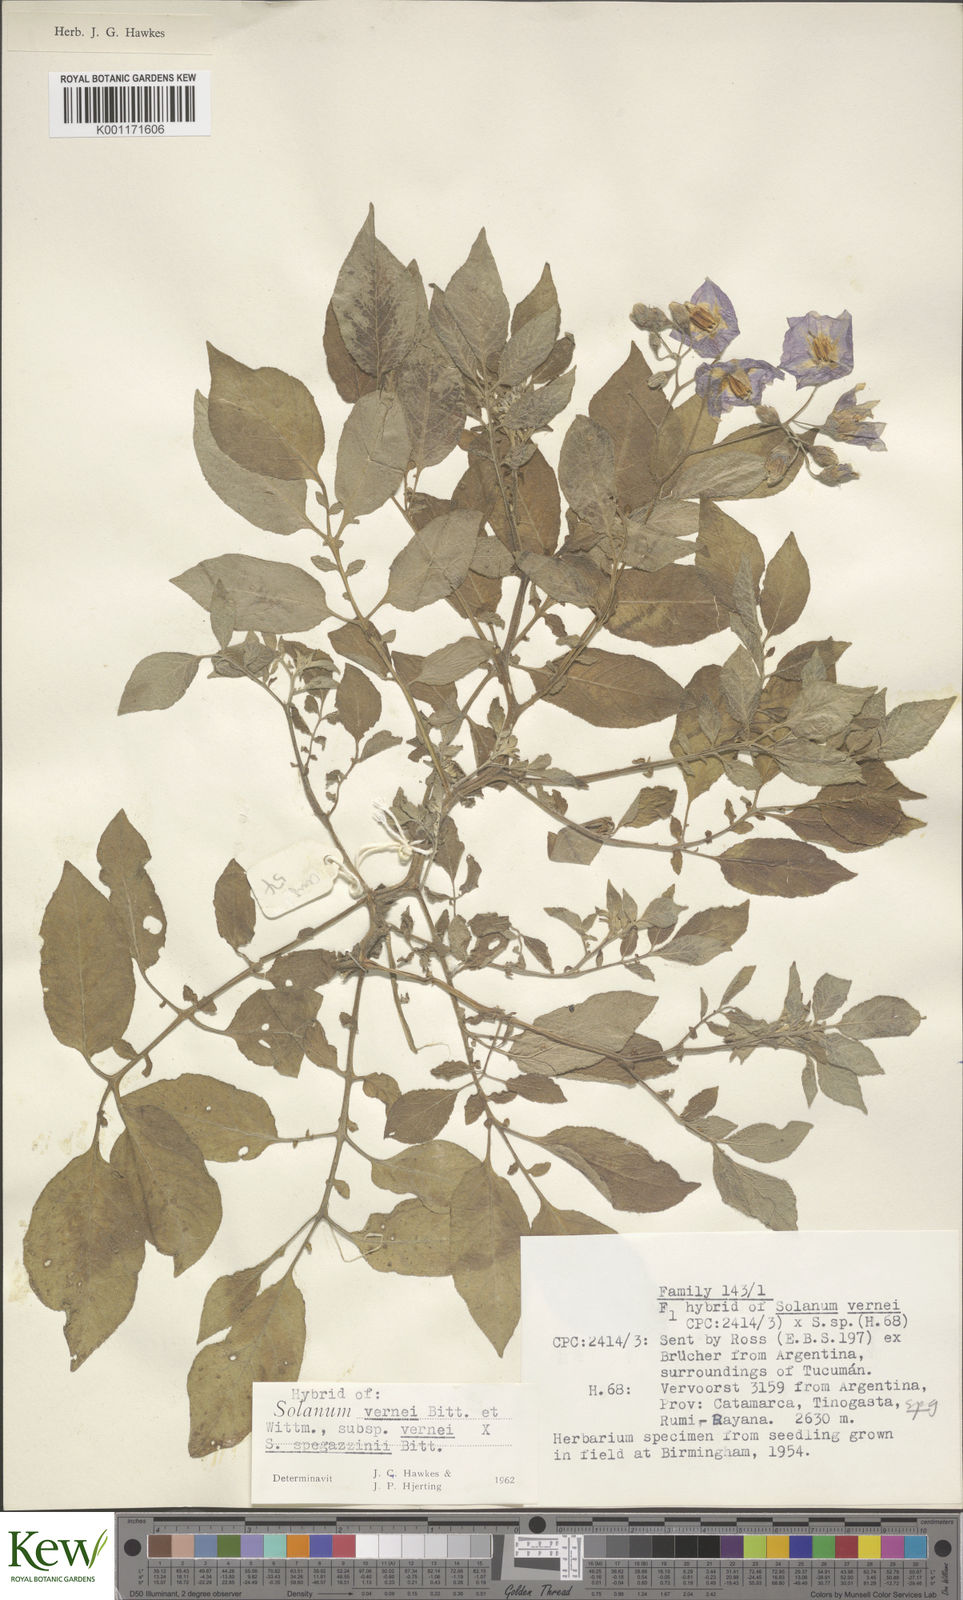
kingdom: Plantae
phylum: Tracheophyta
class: Magnoliopsida
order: Solanales
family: Solanaceae
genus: Solanum
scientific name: Solanum vernei
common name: Purple potato
